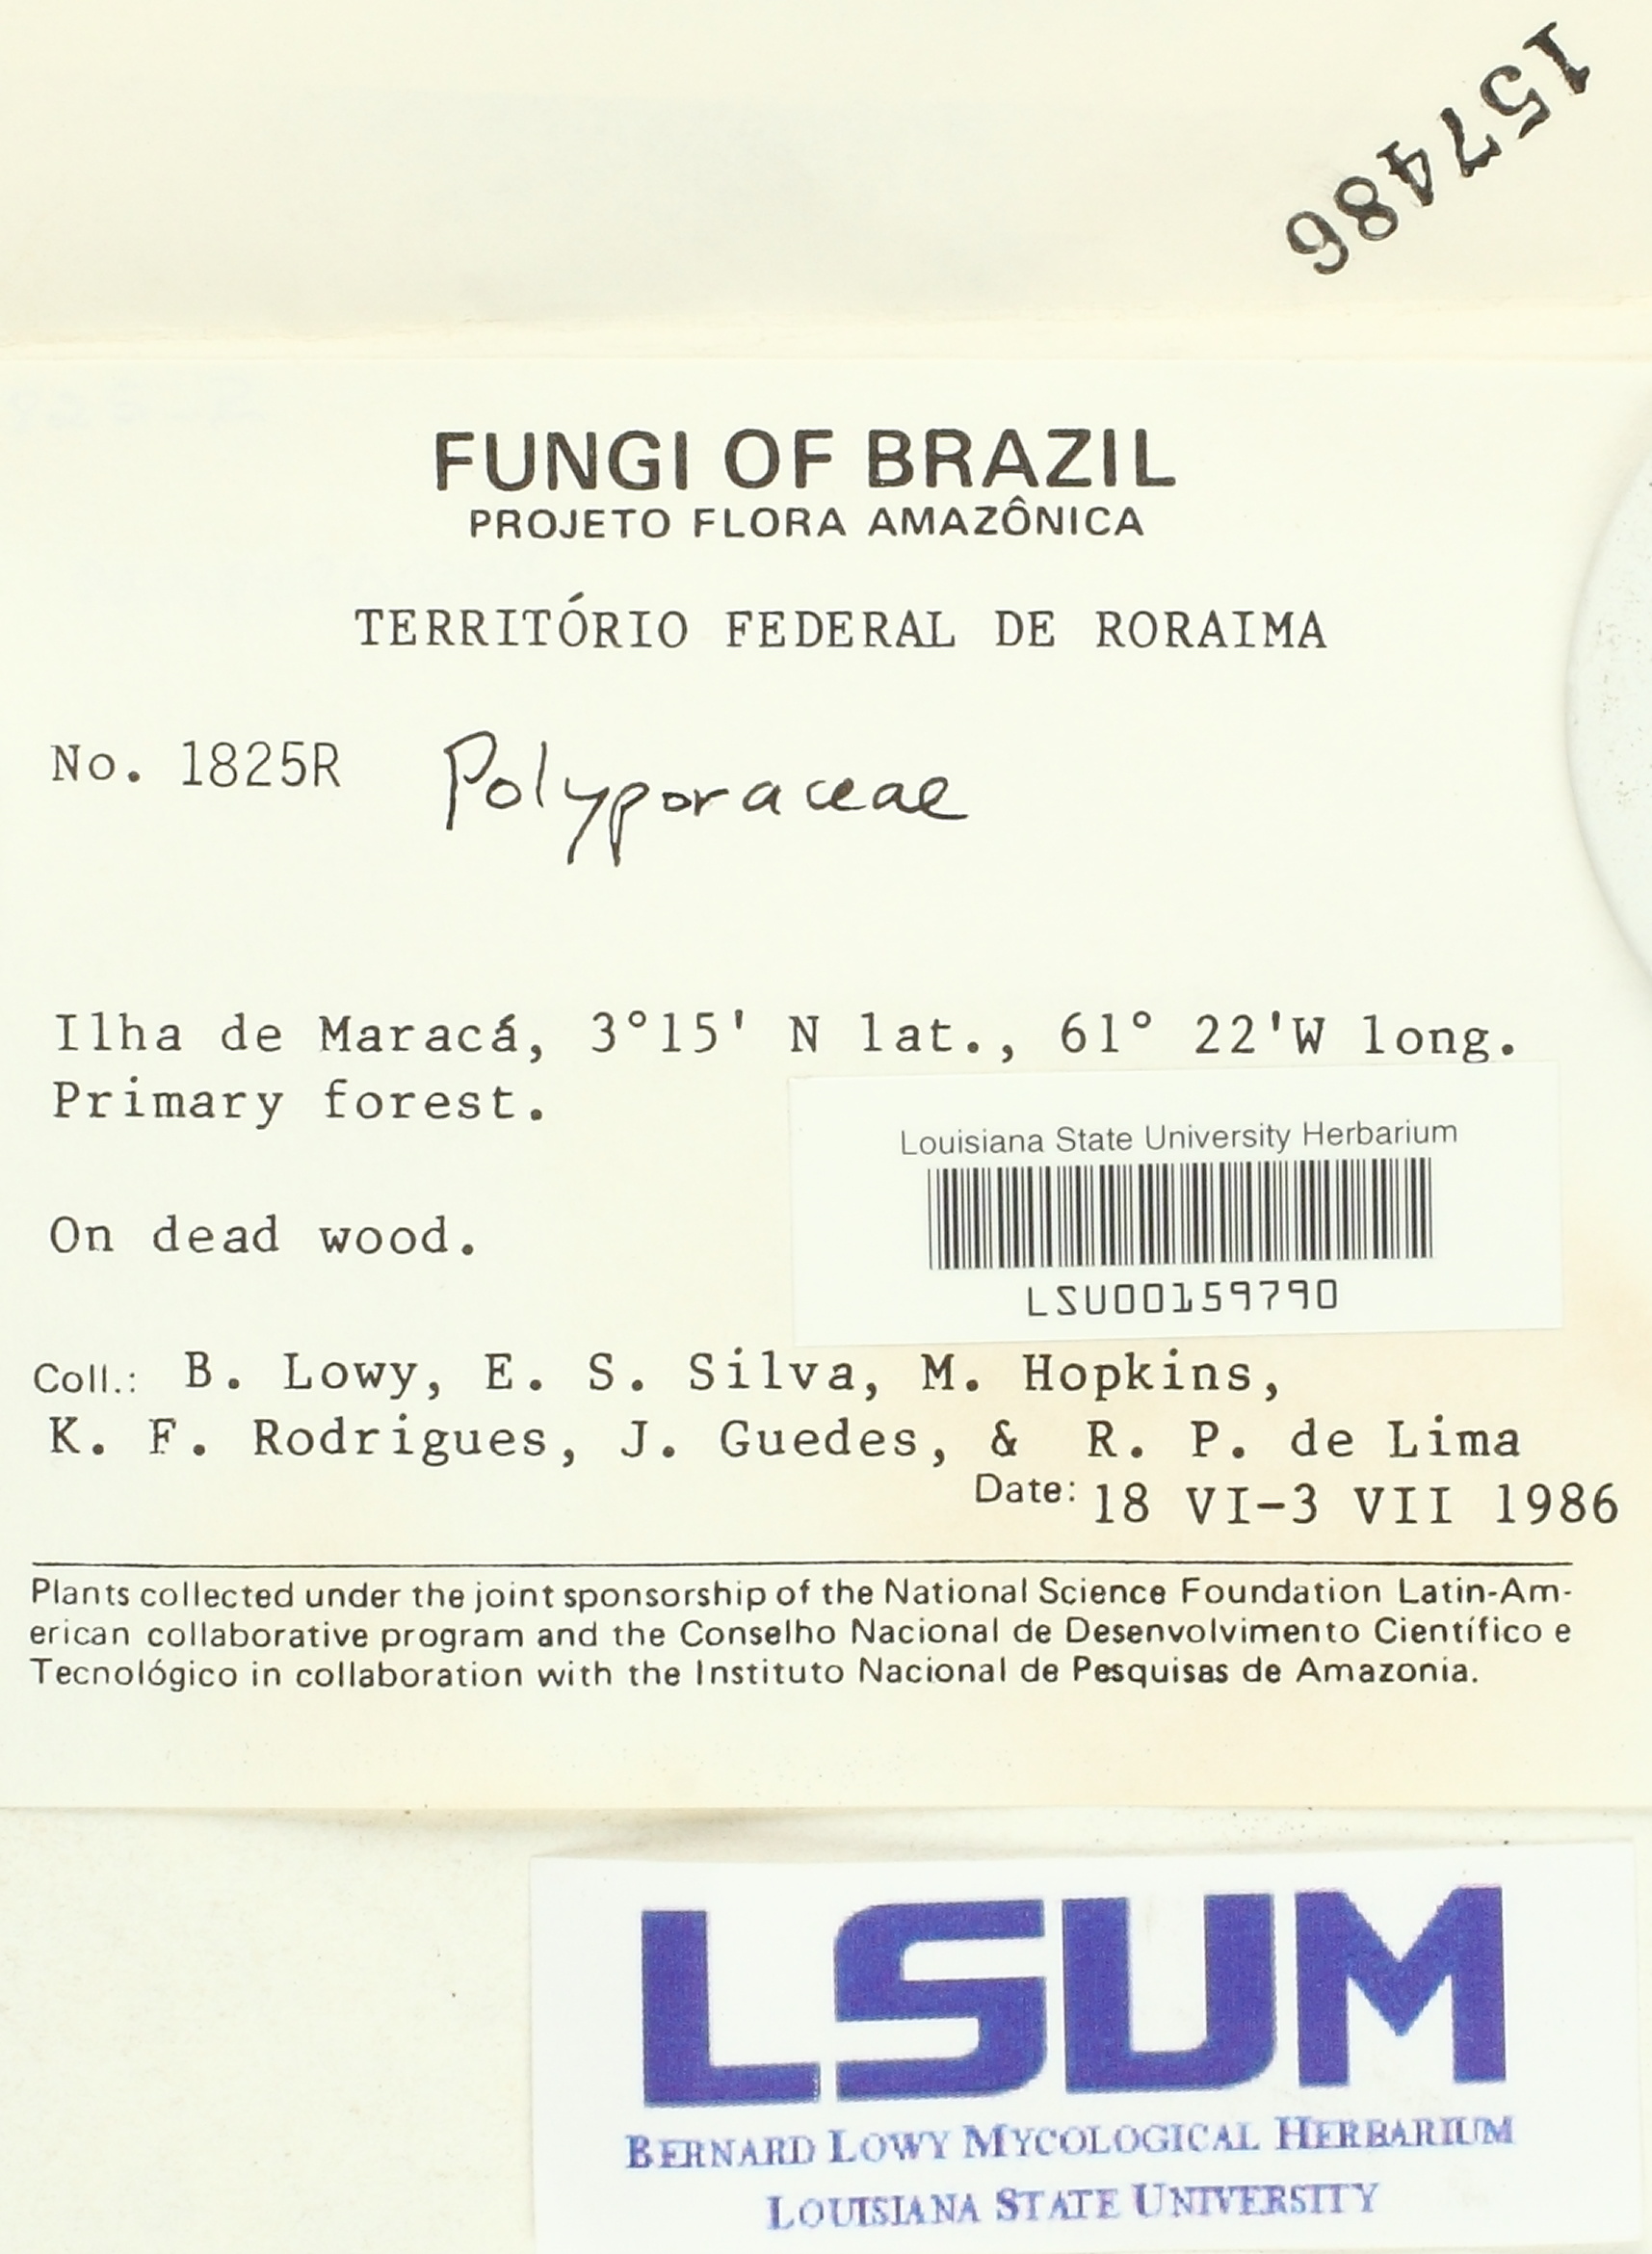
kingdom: Fungi
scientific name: Fungi
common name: Fungi
